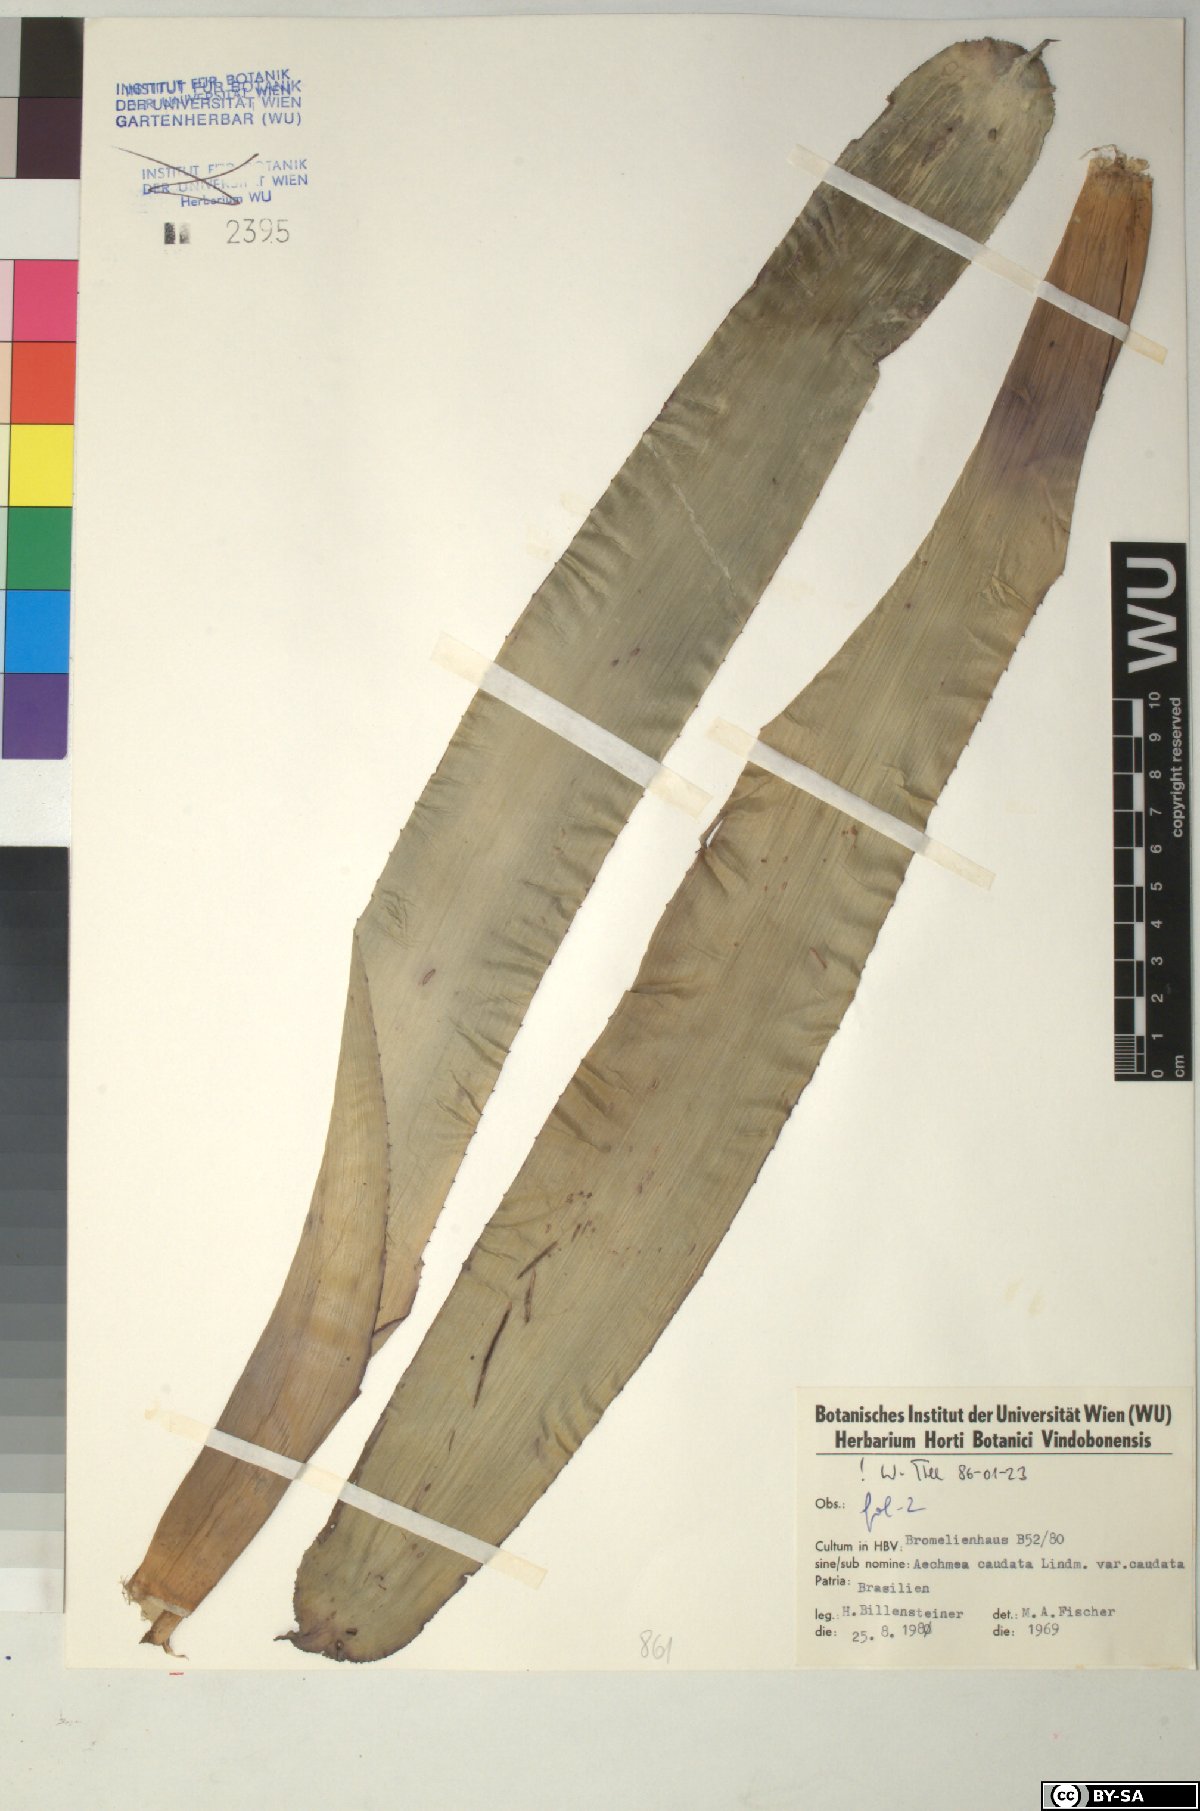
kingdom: Plantae
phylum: Tracheophyta
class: Liliopsida
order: Poales
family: Bromeliaceae
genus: Aechmea
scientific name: Aechmea caudata
